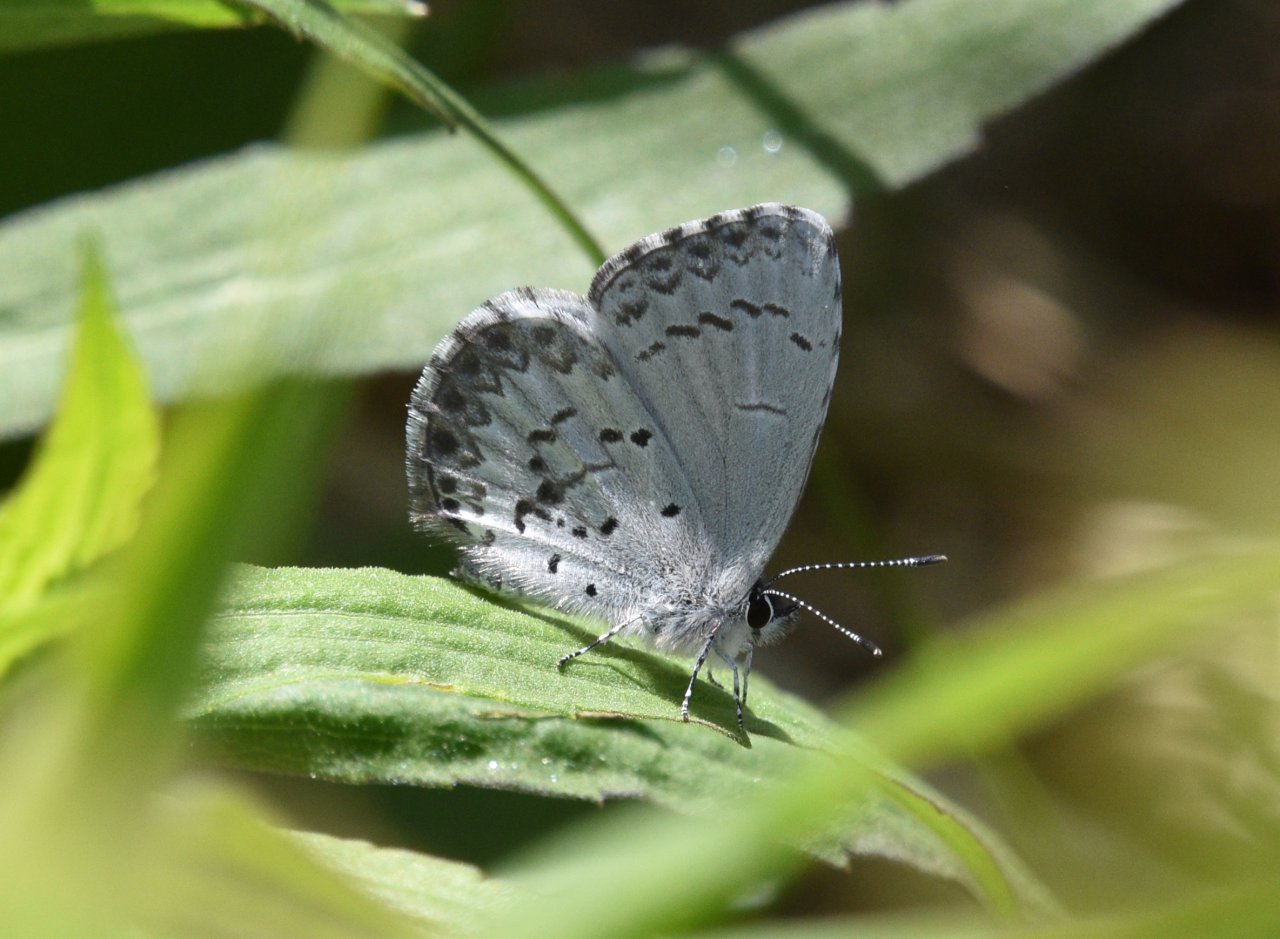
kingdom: Animalia
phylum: Arthropoda
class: Insecta
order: Lepidoptera
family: Lycaenidae
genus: Celastrina
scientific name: Celastrina lucia
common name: Northern Spring Azure
